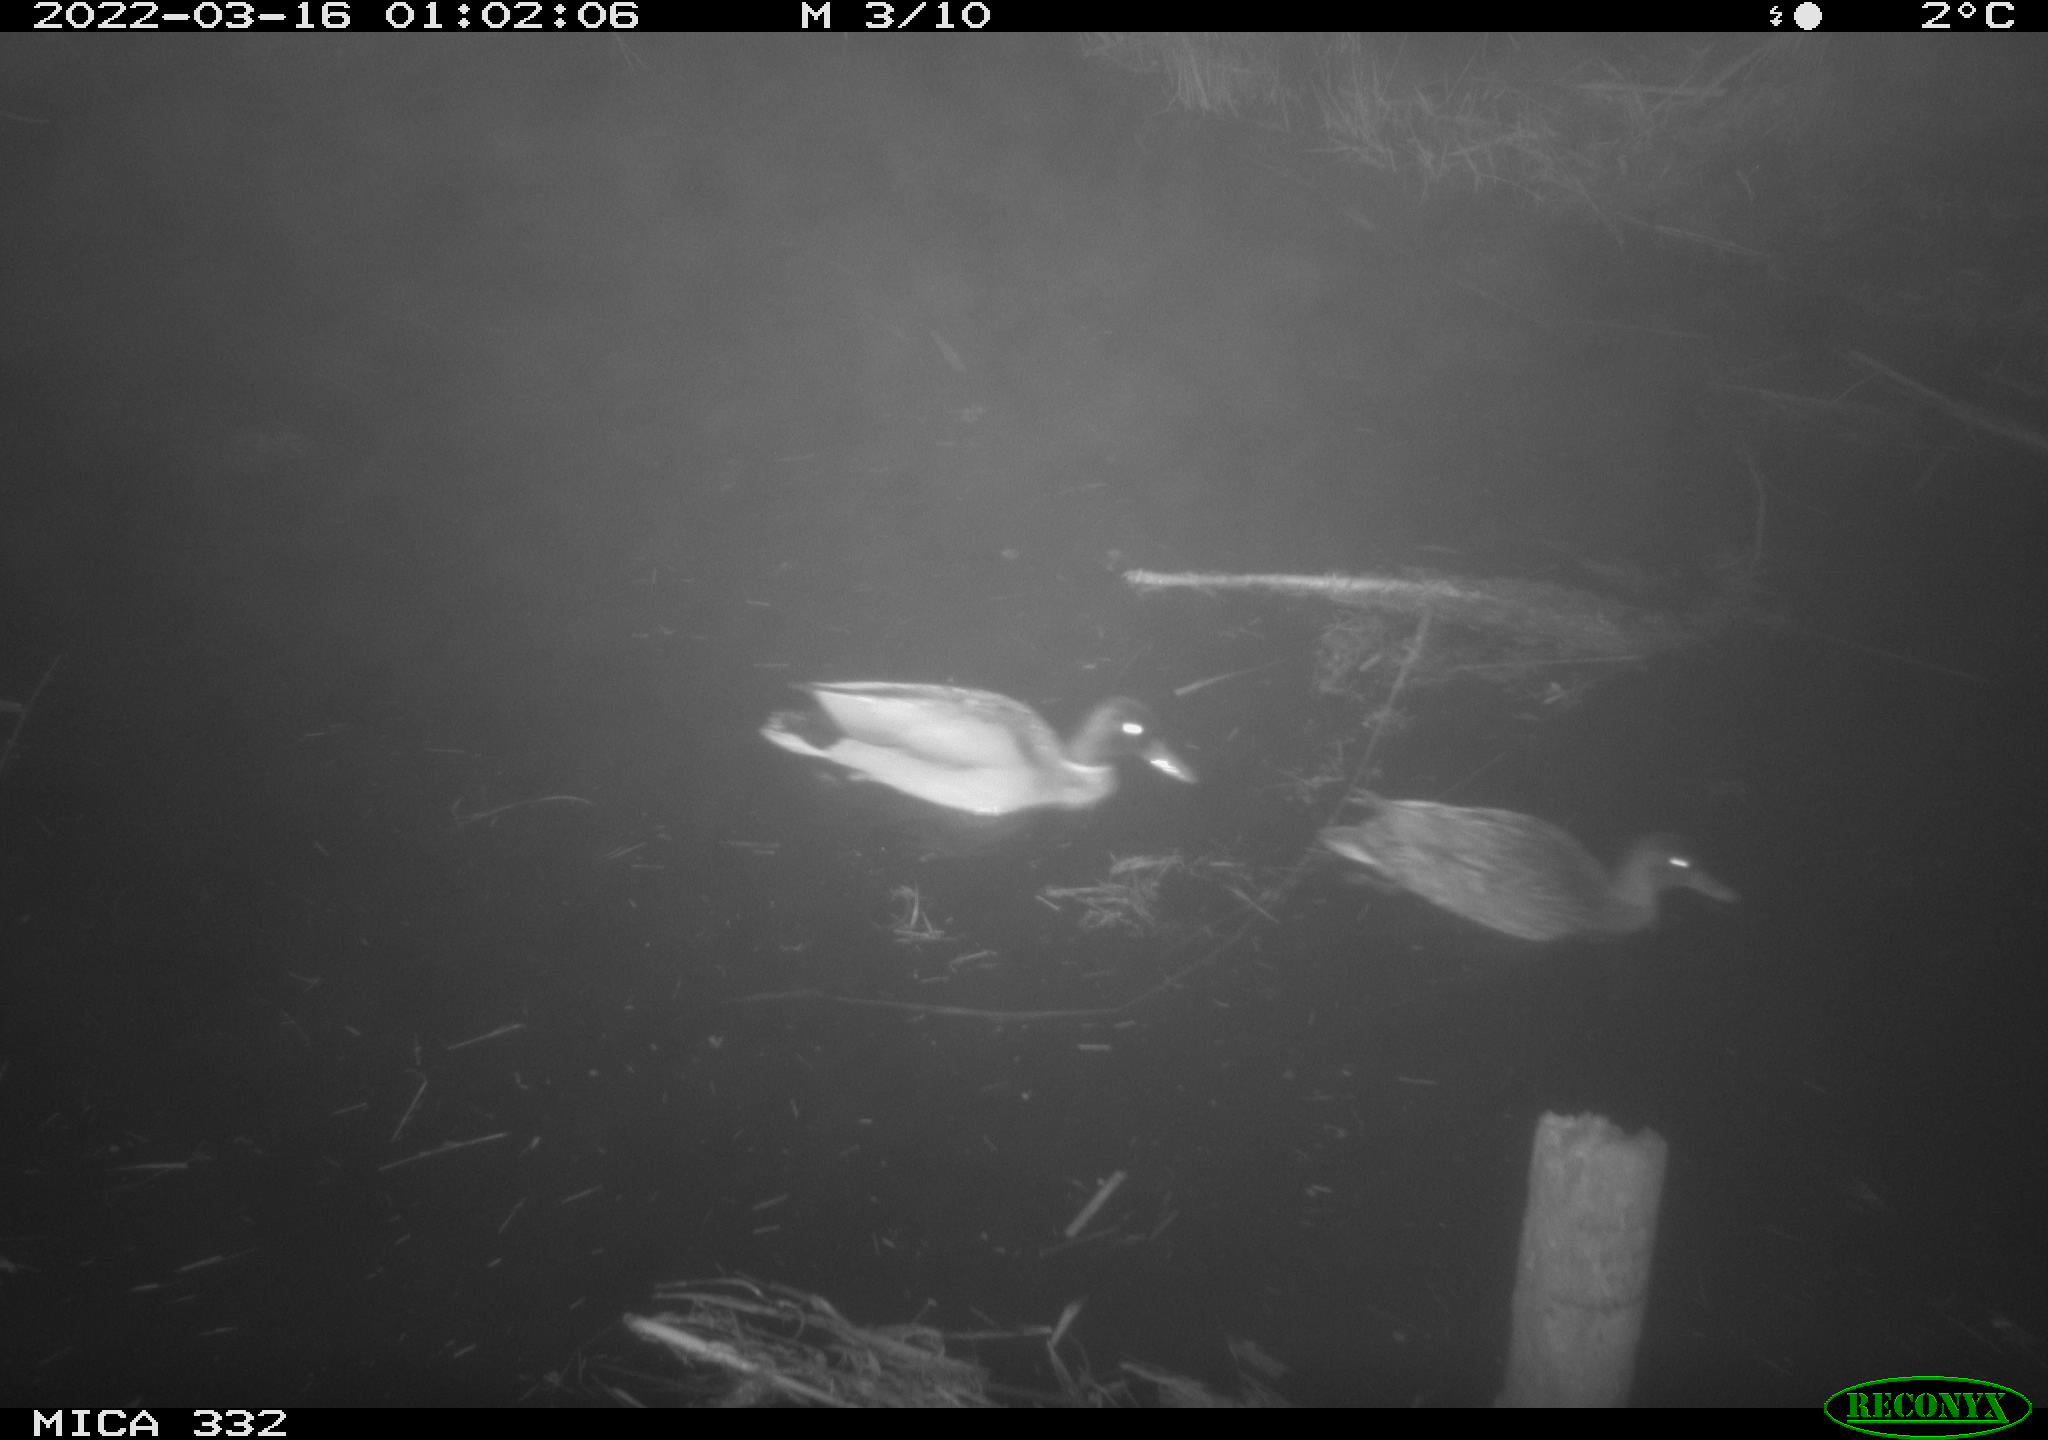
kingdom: Animalia
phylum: Chordata
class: Aves
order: Anseriformes
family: Anatidae
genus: Anas
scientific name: Anas platyrhynchos
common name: Mallard
